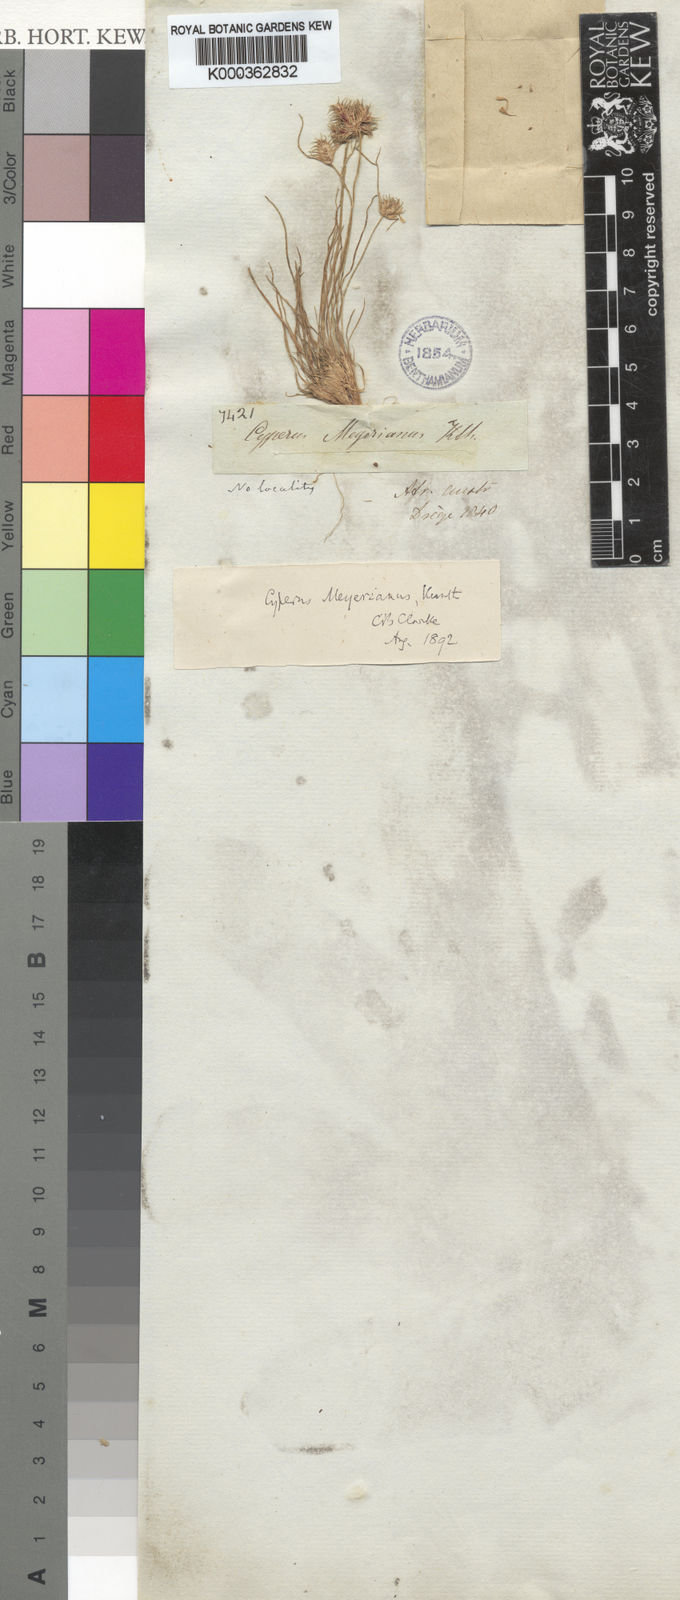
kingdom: Plantae
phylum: Tracheophyta
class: Liliopsida
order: Poales
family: Cyperaceae
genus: Cyperus
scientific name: Cyperus meyerianus
